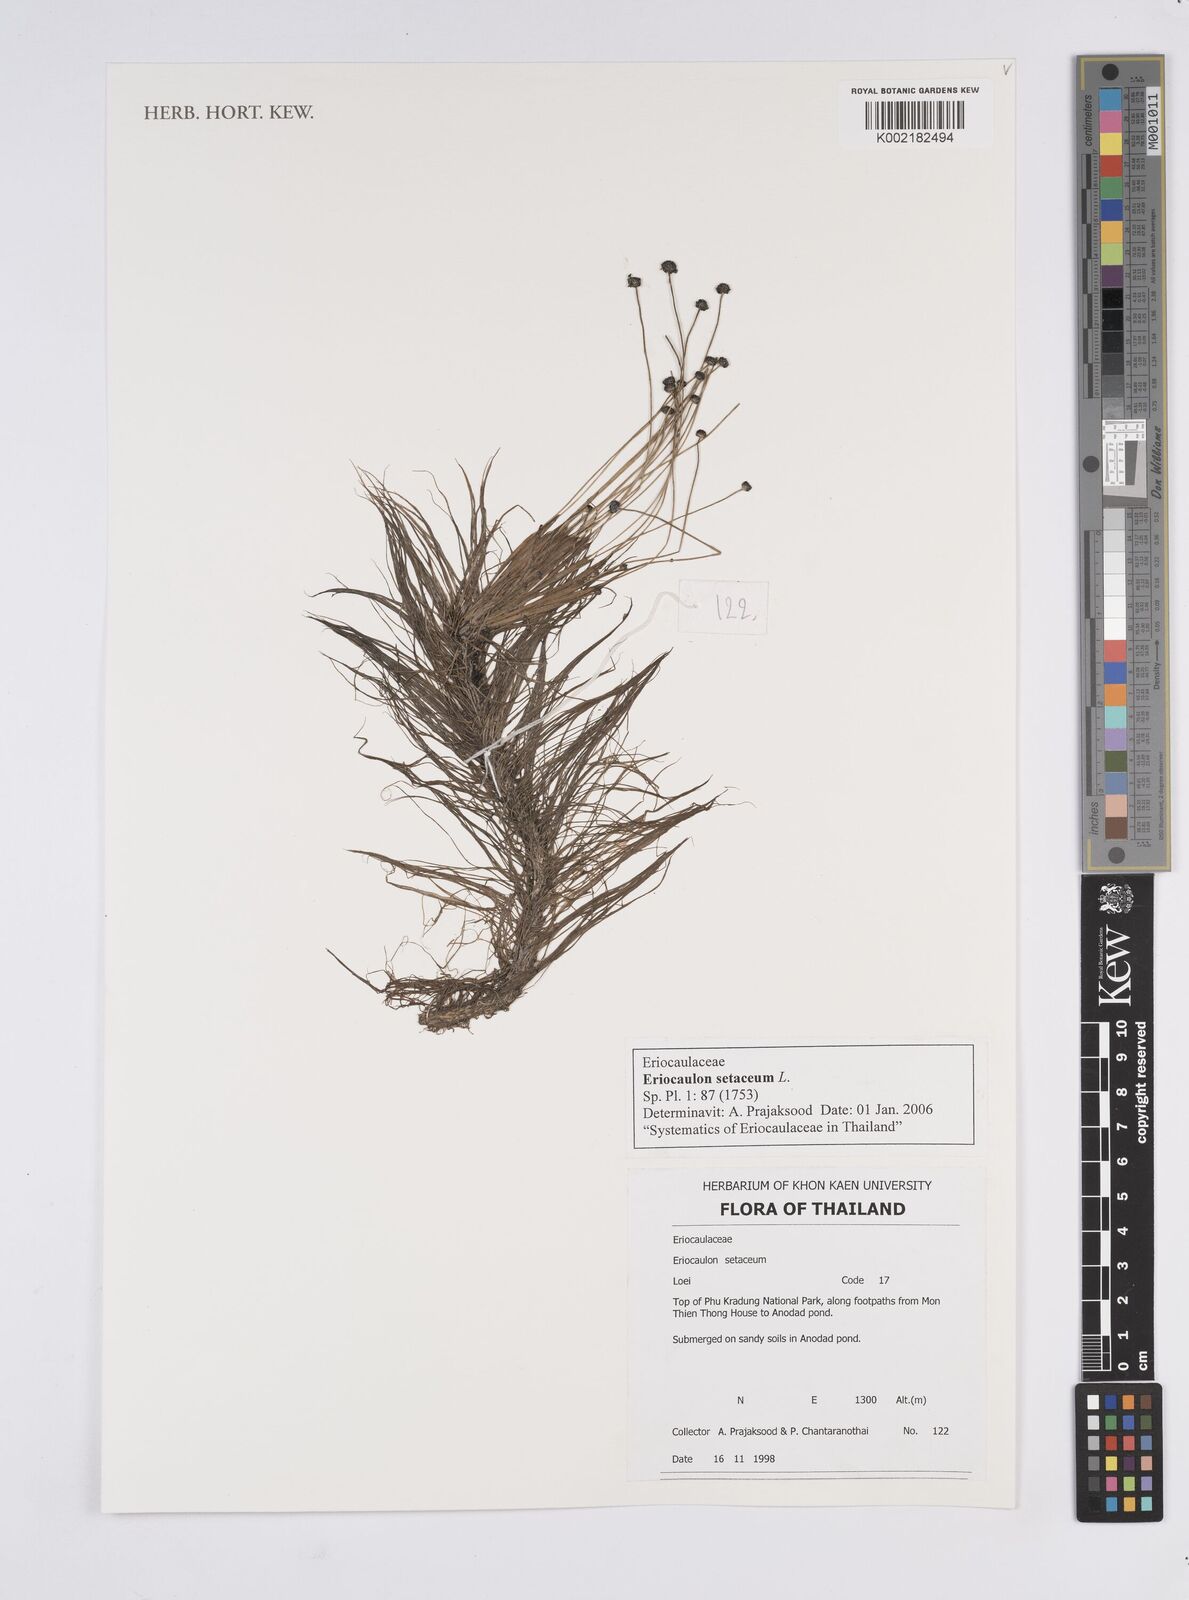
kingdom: Plantae
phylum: Tracheophyta
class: Liliopsida
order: Poales
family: Eriocaulaceae
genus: Eriocaulon
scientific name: Eriocaulon setaceum
